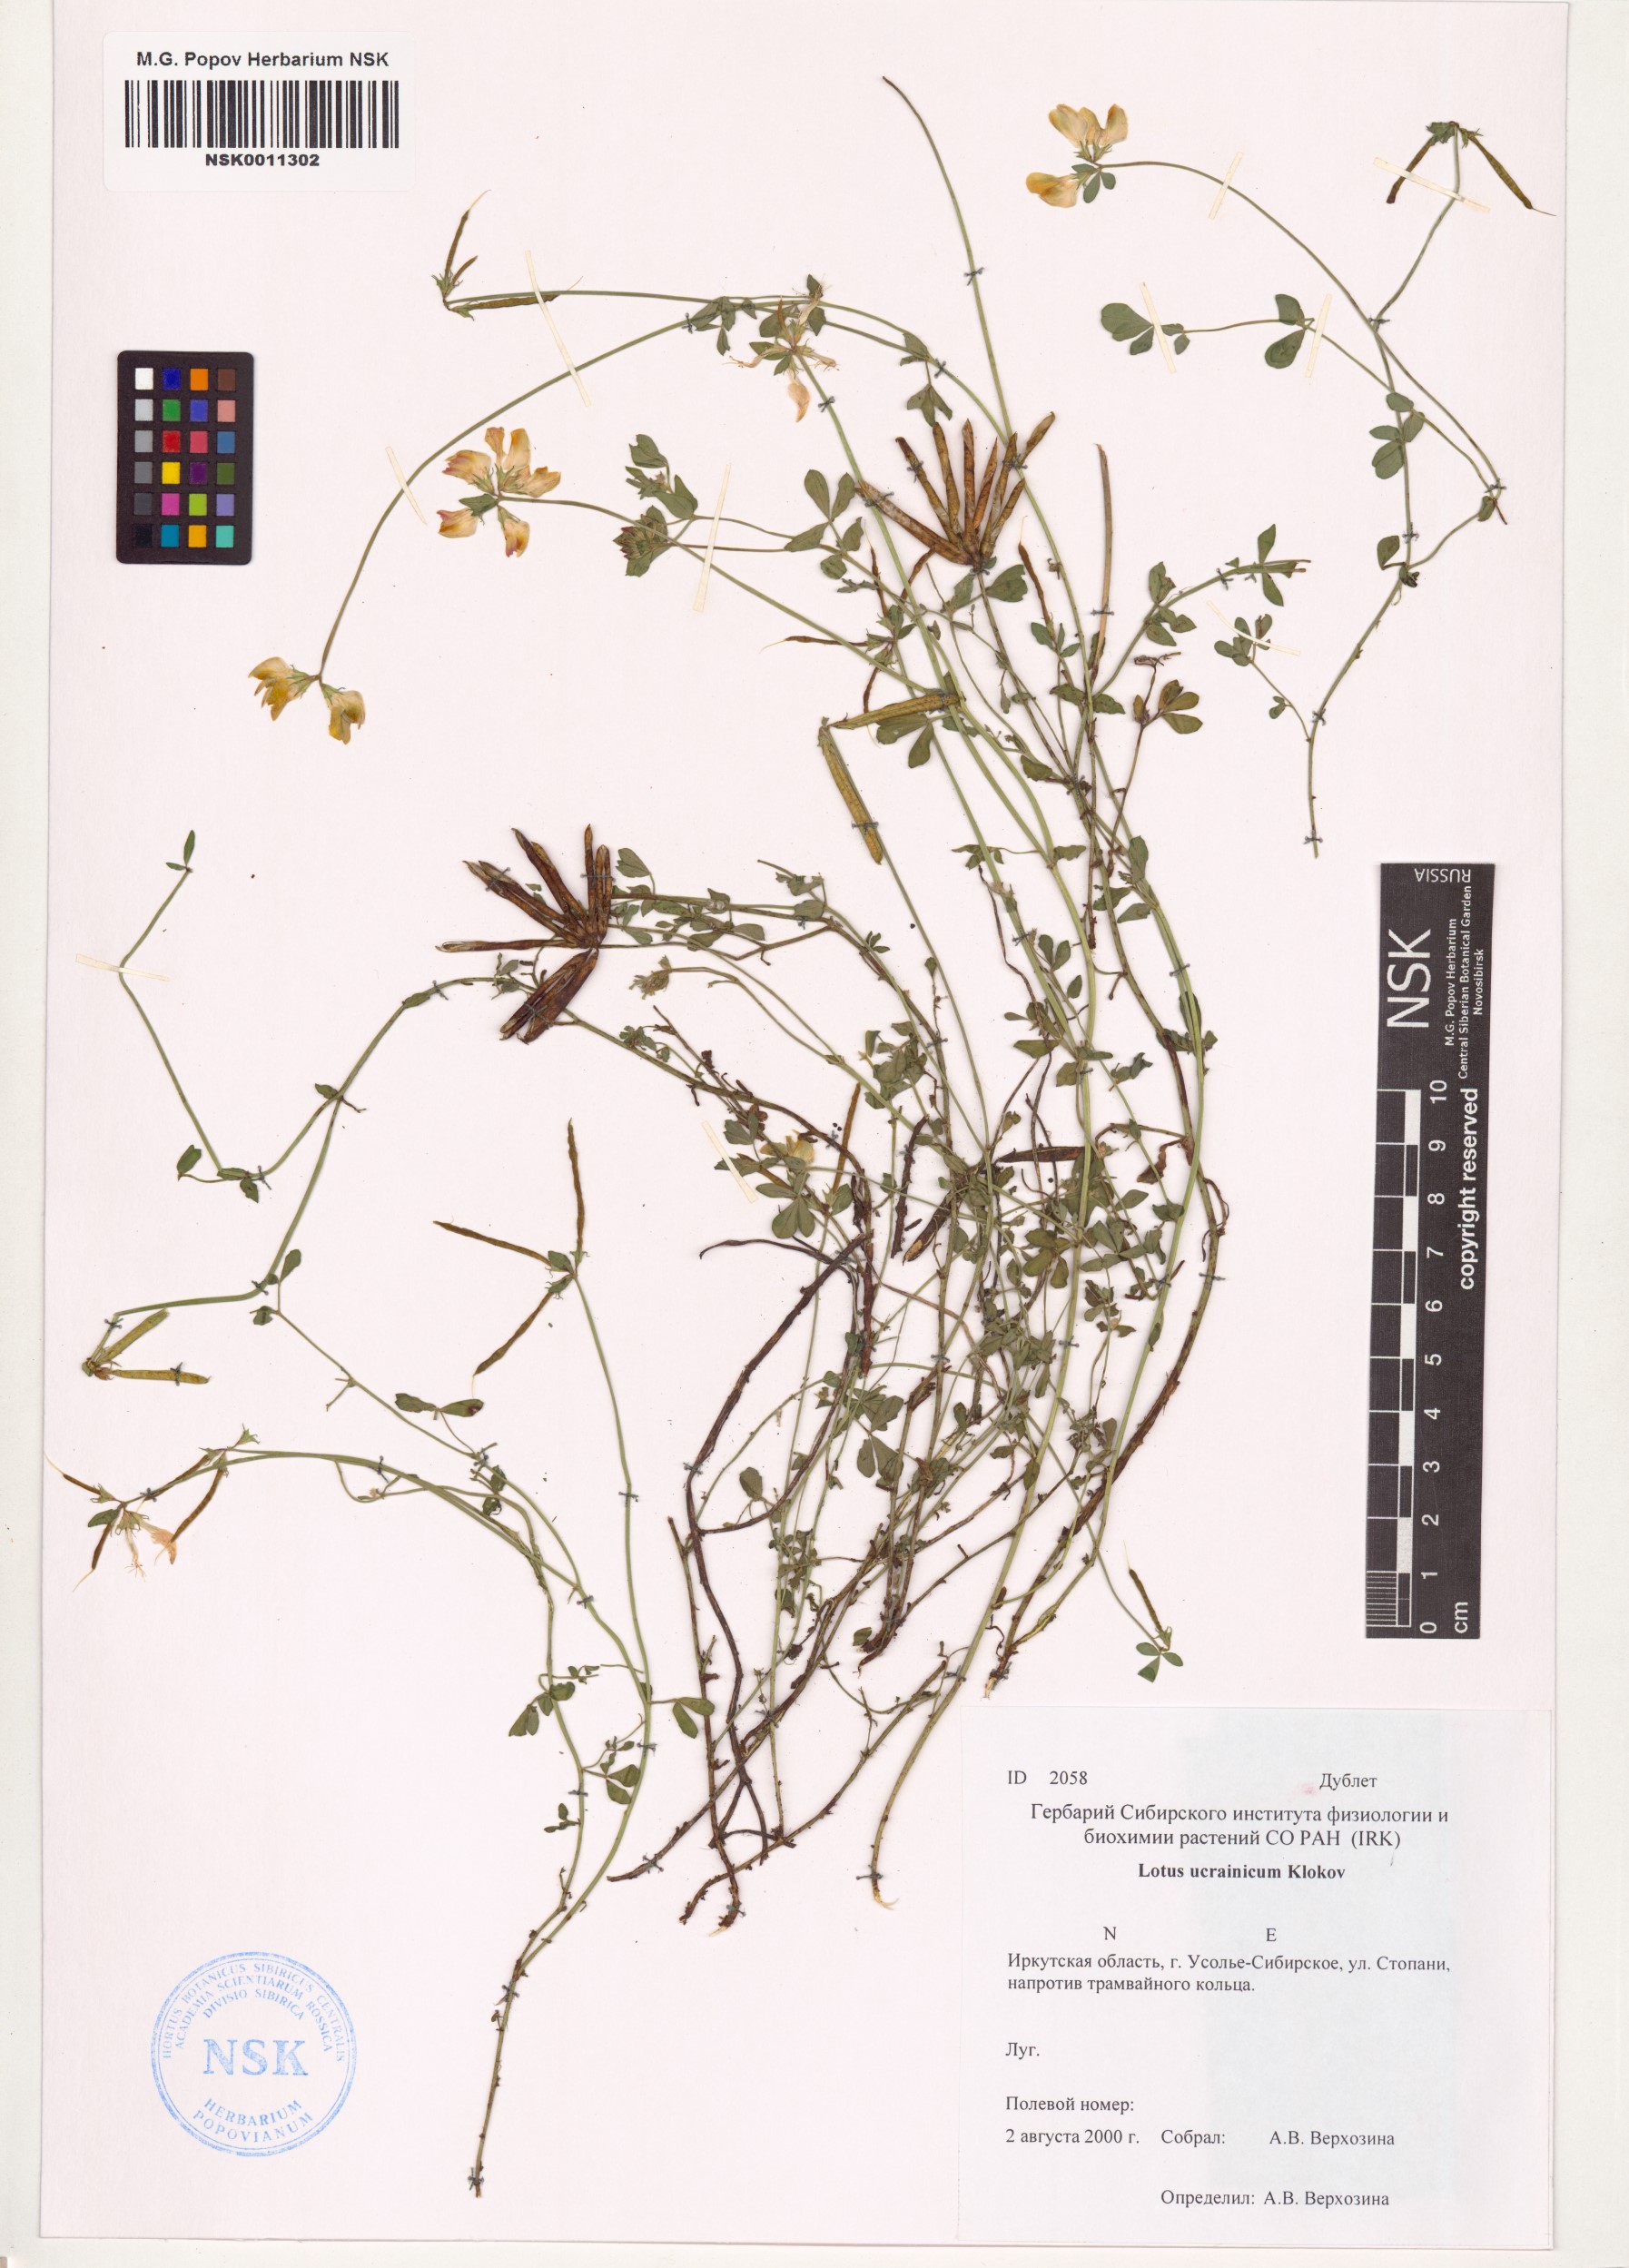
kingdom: Plantae
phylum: Tracheophyta
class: Magnoliopsida
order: Fabales
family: Fabaceae
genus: Lotus
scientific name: Lotus ucrainicus
